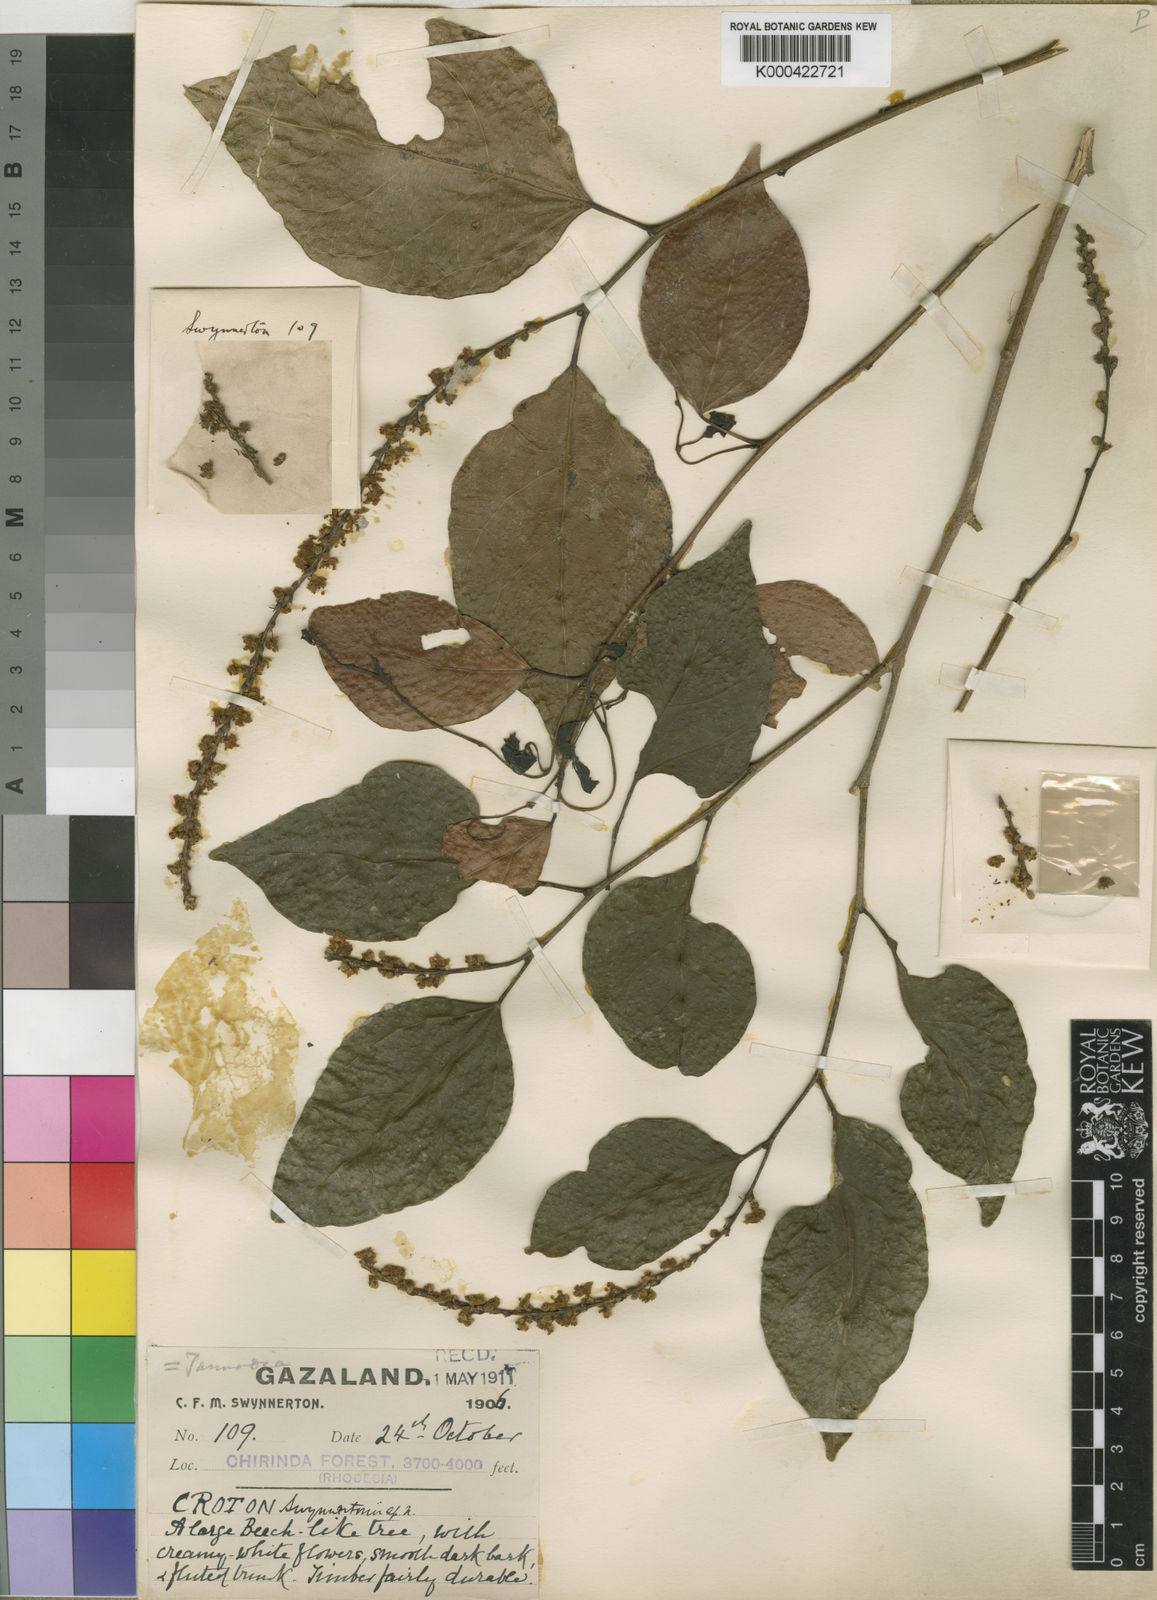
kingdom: Plantae
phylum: Tracheophyta
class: Magnoliopsida
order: Malpighiales
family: Euphorbiaceae
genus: Tannodia
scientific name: Tannodia swynnertonii
